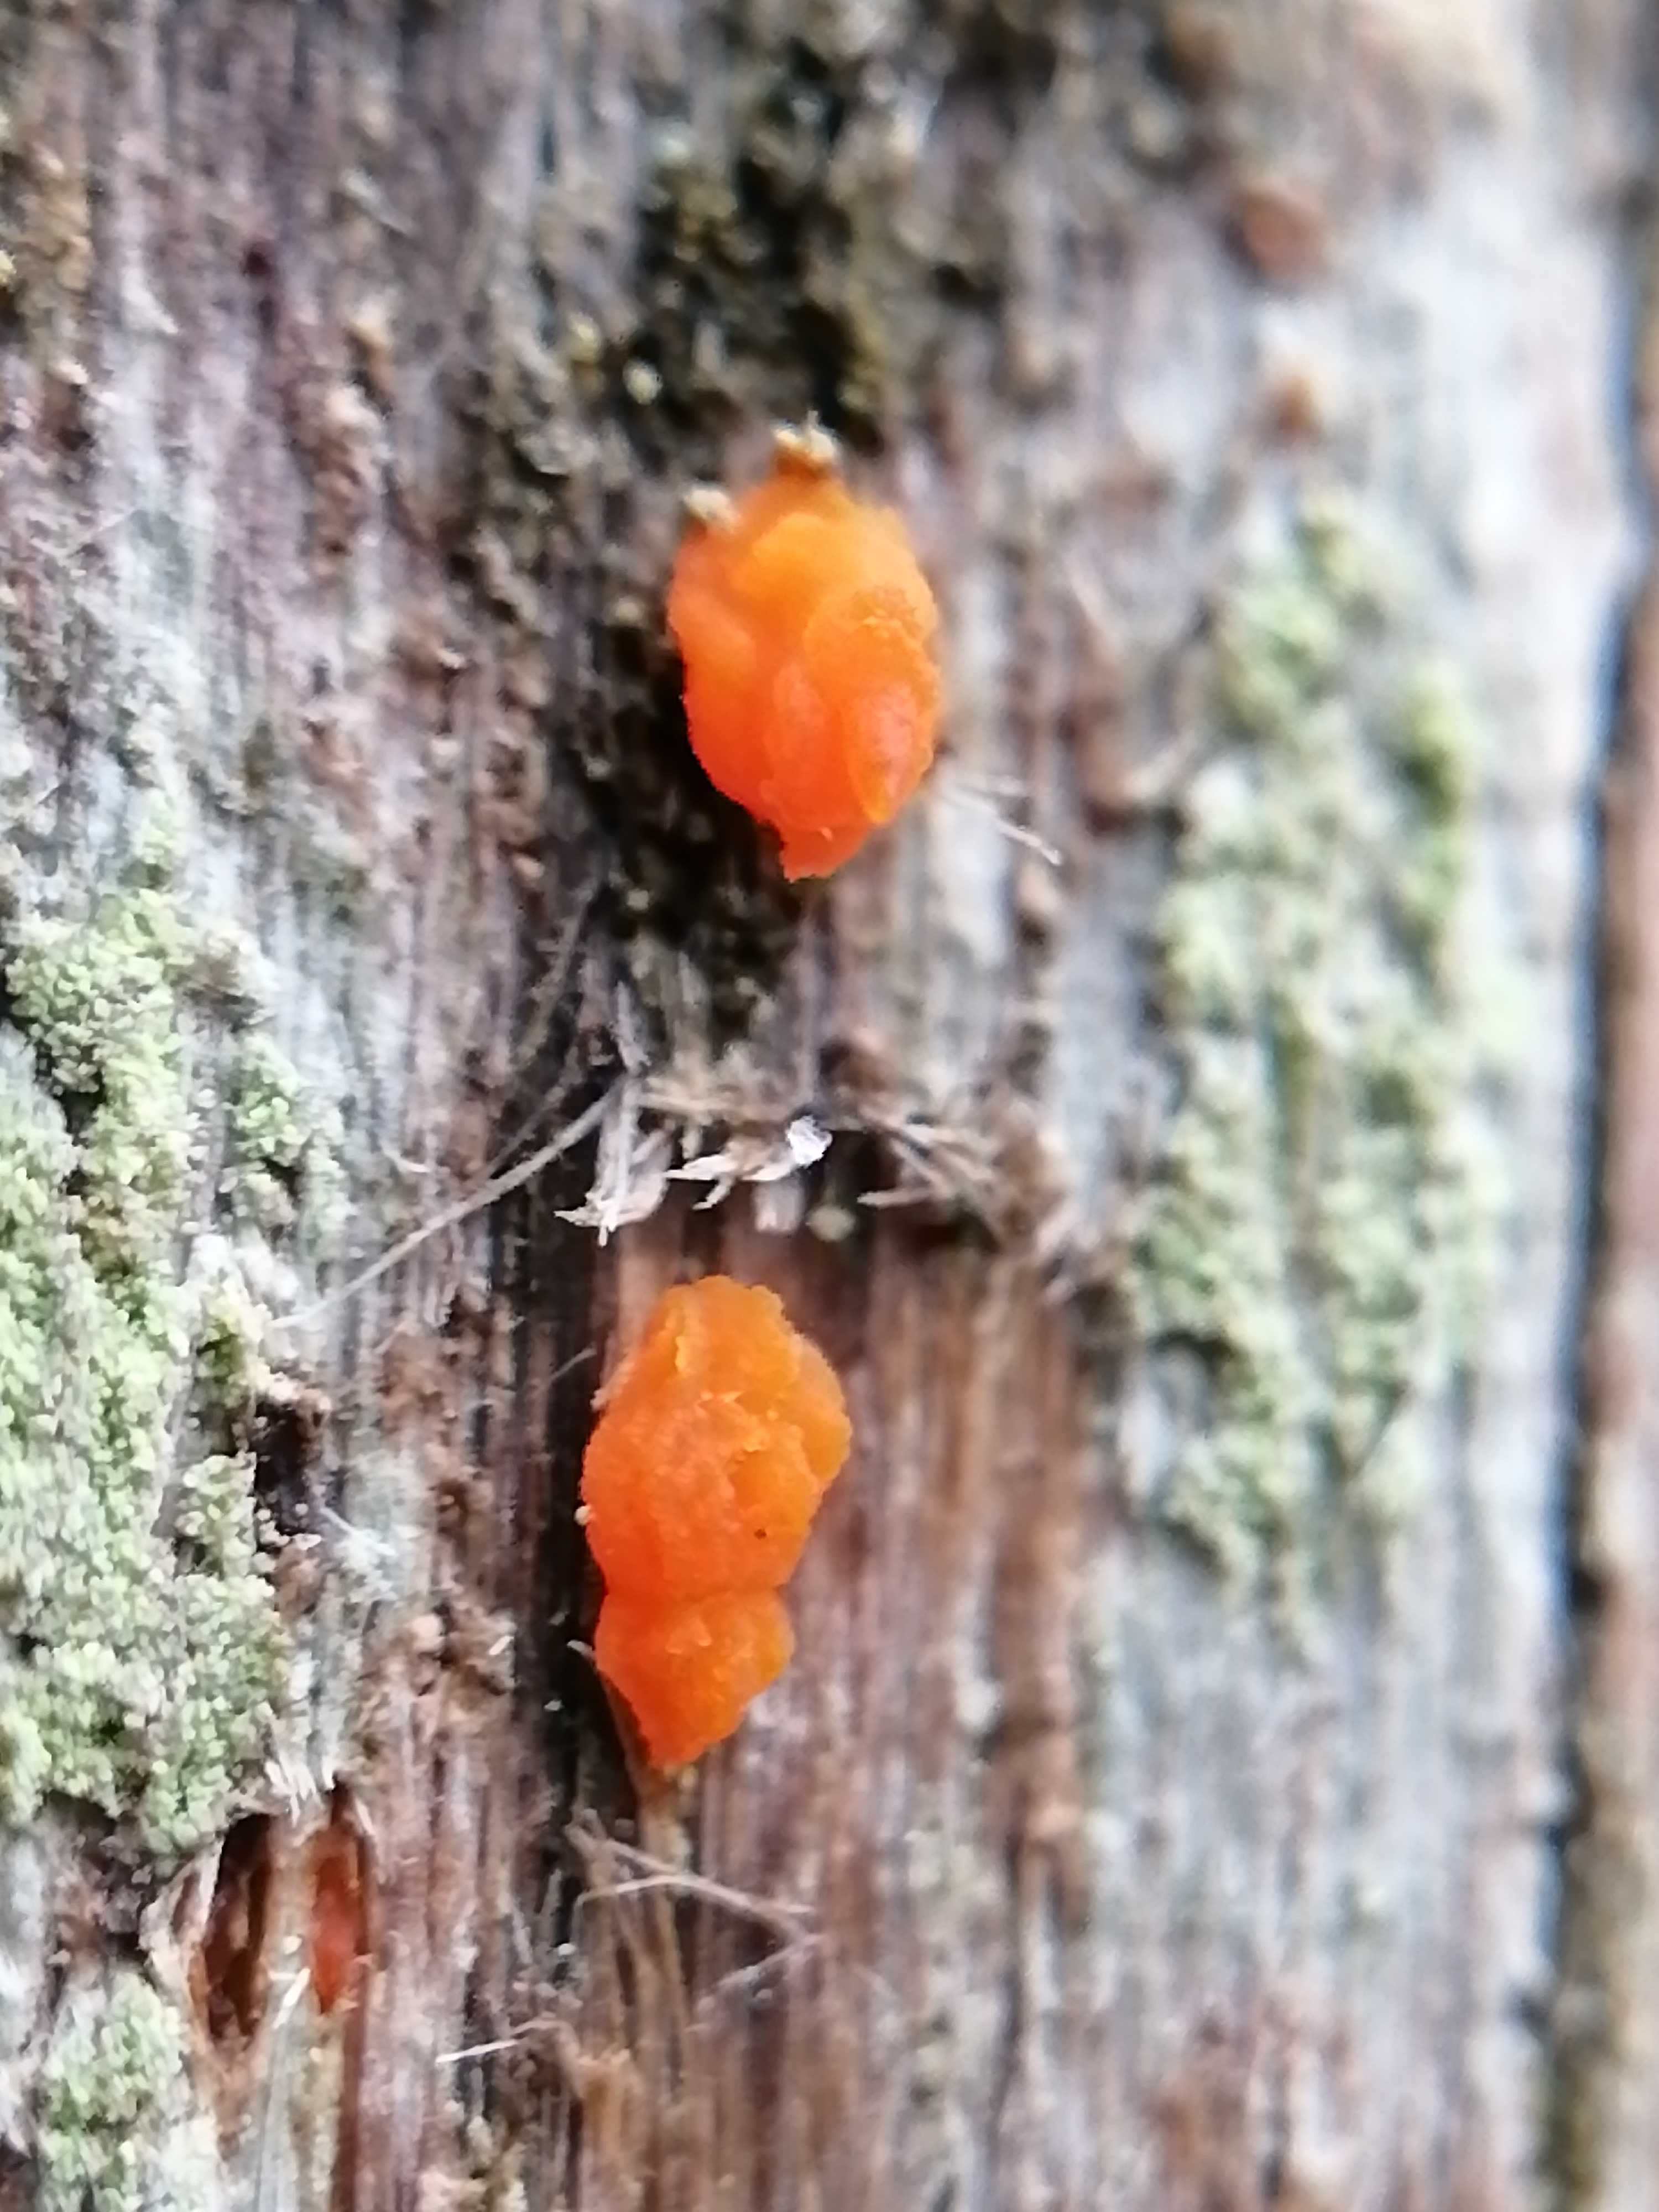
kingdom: Fungi
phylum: Basidiomycota
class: Dacrymycetes
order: Dacrymycetales
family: Dacrymycetaceae
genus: Dacrymyces
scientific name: Dacrymyces stillatus
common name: almindelig tåresvamp
